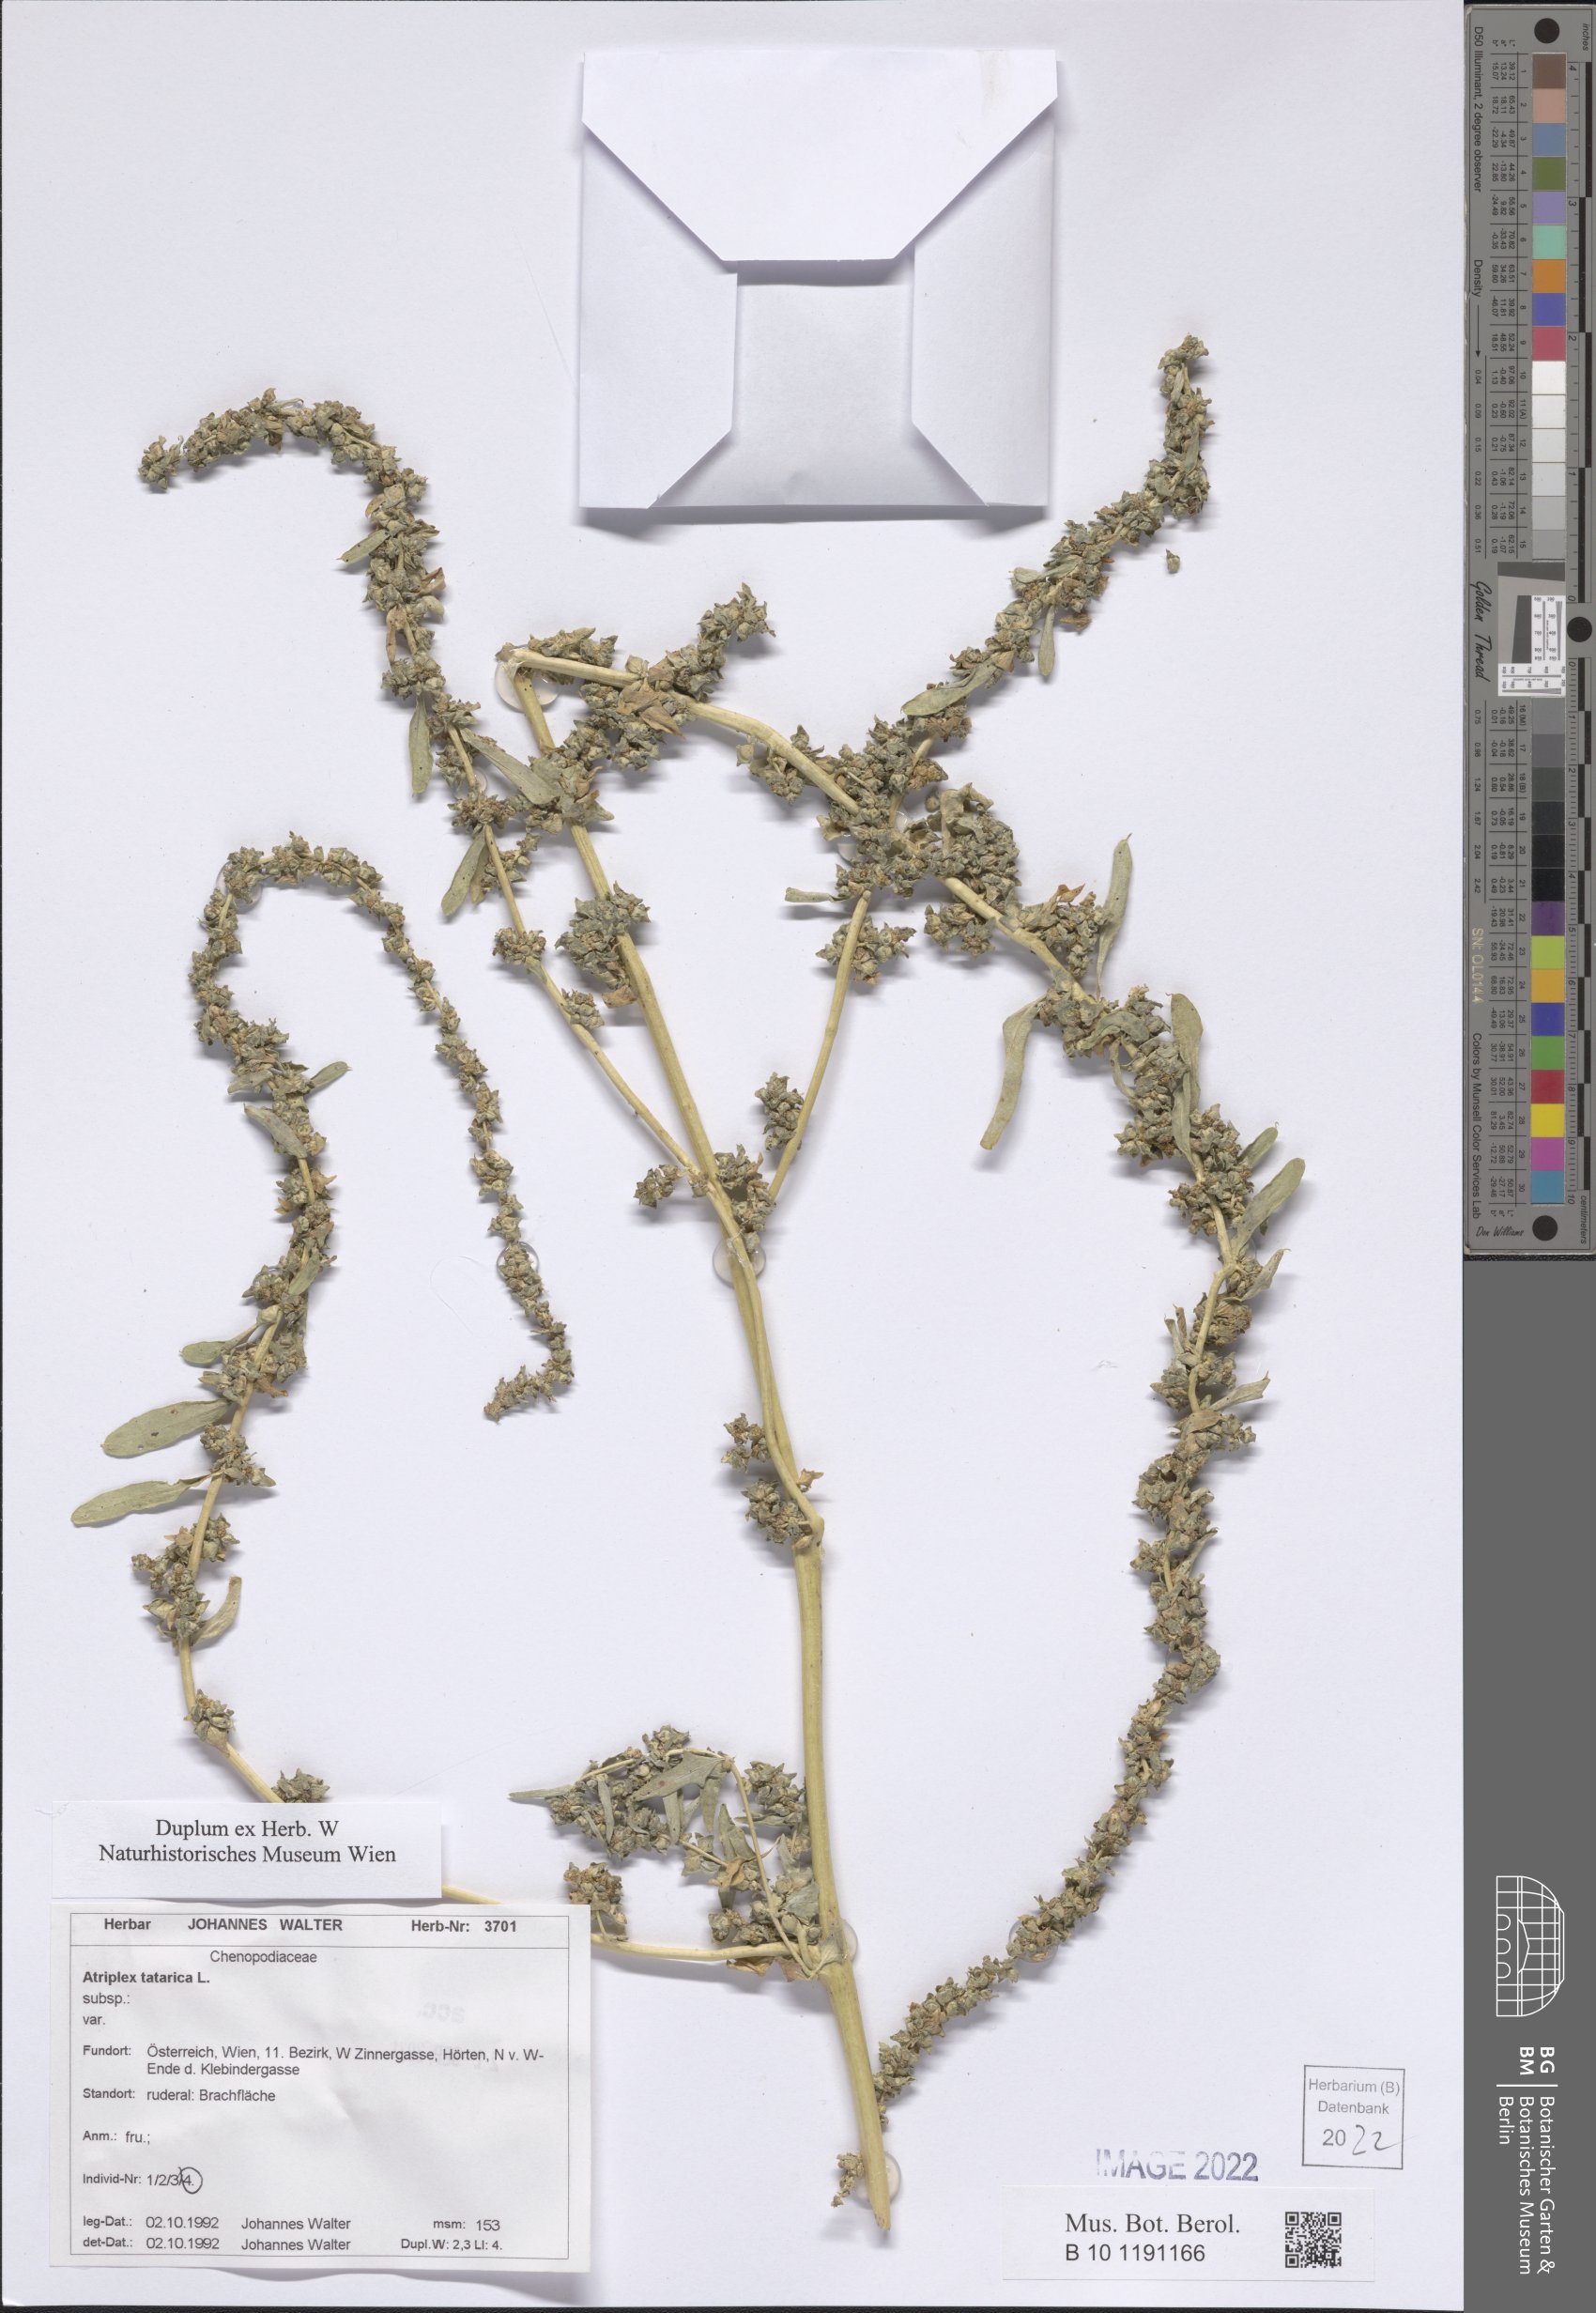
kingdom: Plantae
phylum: Tracheophyta
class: Magnoliopsida
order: Caryophyllales
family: Amaranthaceae
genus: Atriplex
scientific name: Atriplex tatarica
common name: Tatarian orache
